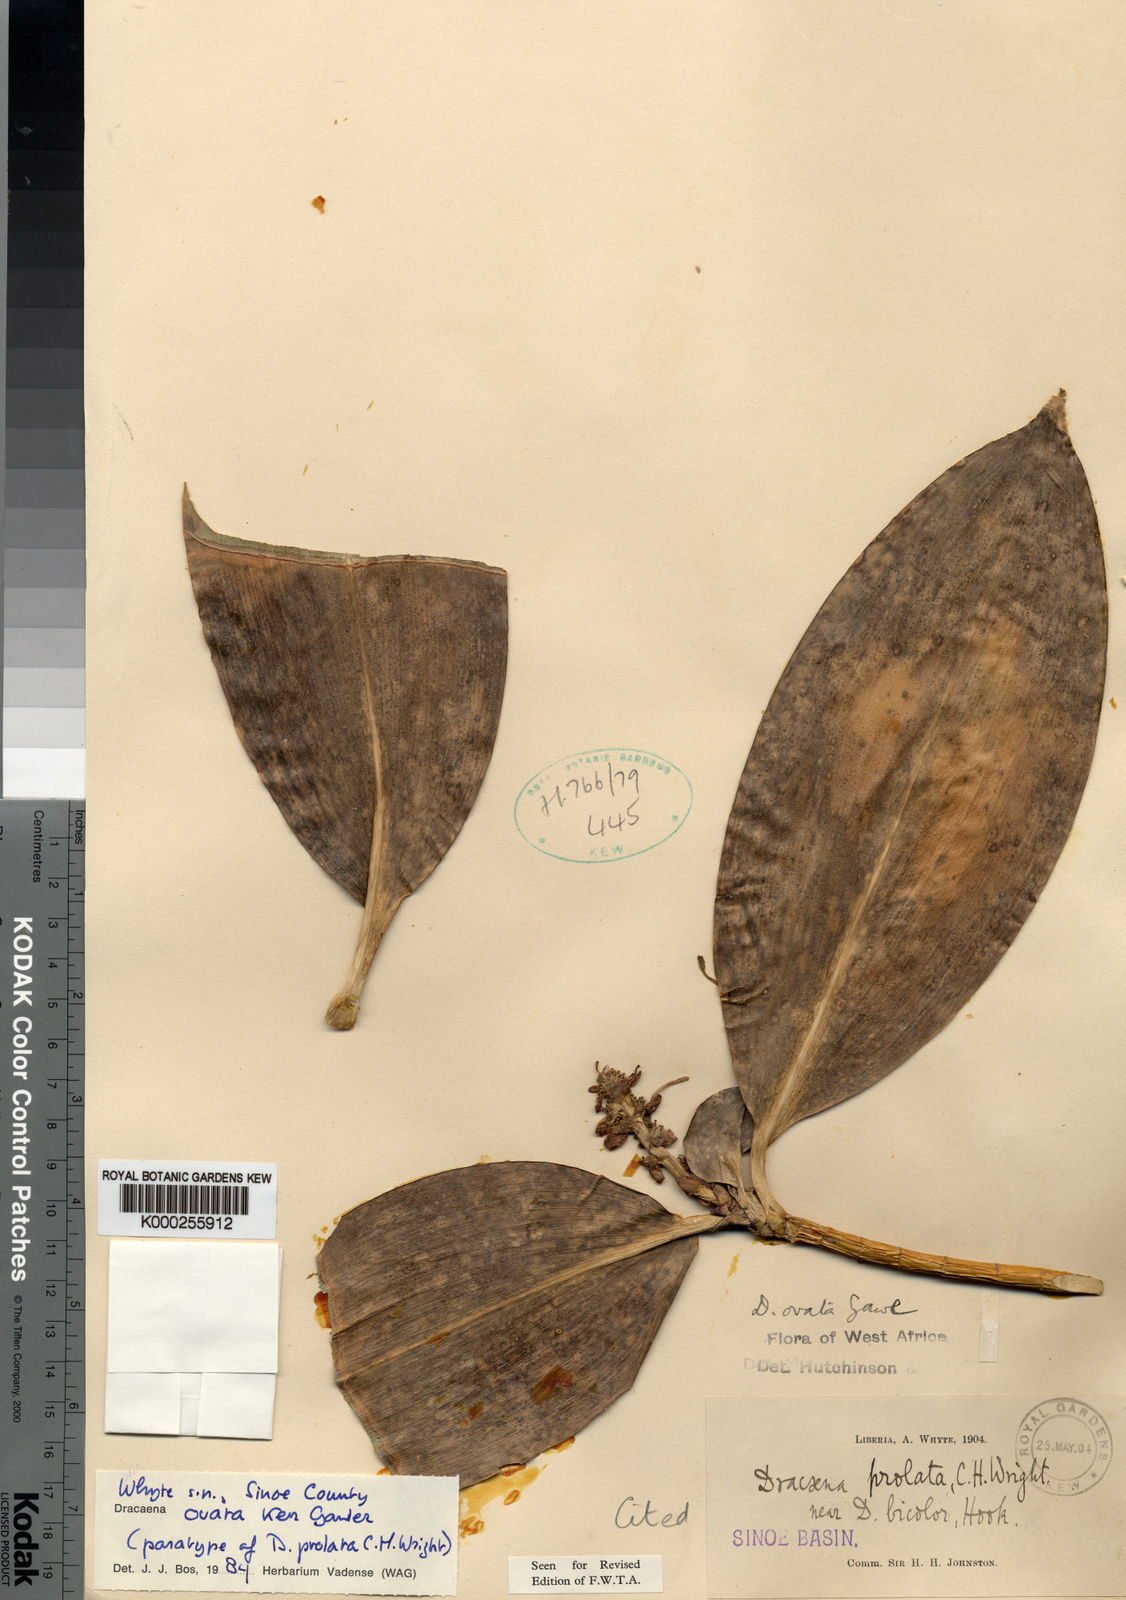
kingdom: Plantae
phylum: Tracheophyta
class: Liliopsida
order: Asparagales
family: Asparagaceae
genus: Dracaena
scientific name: Dracaena ovata
